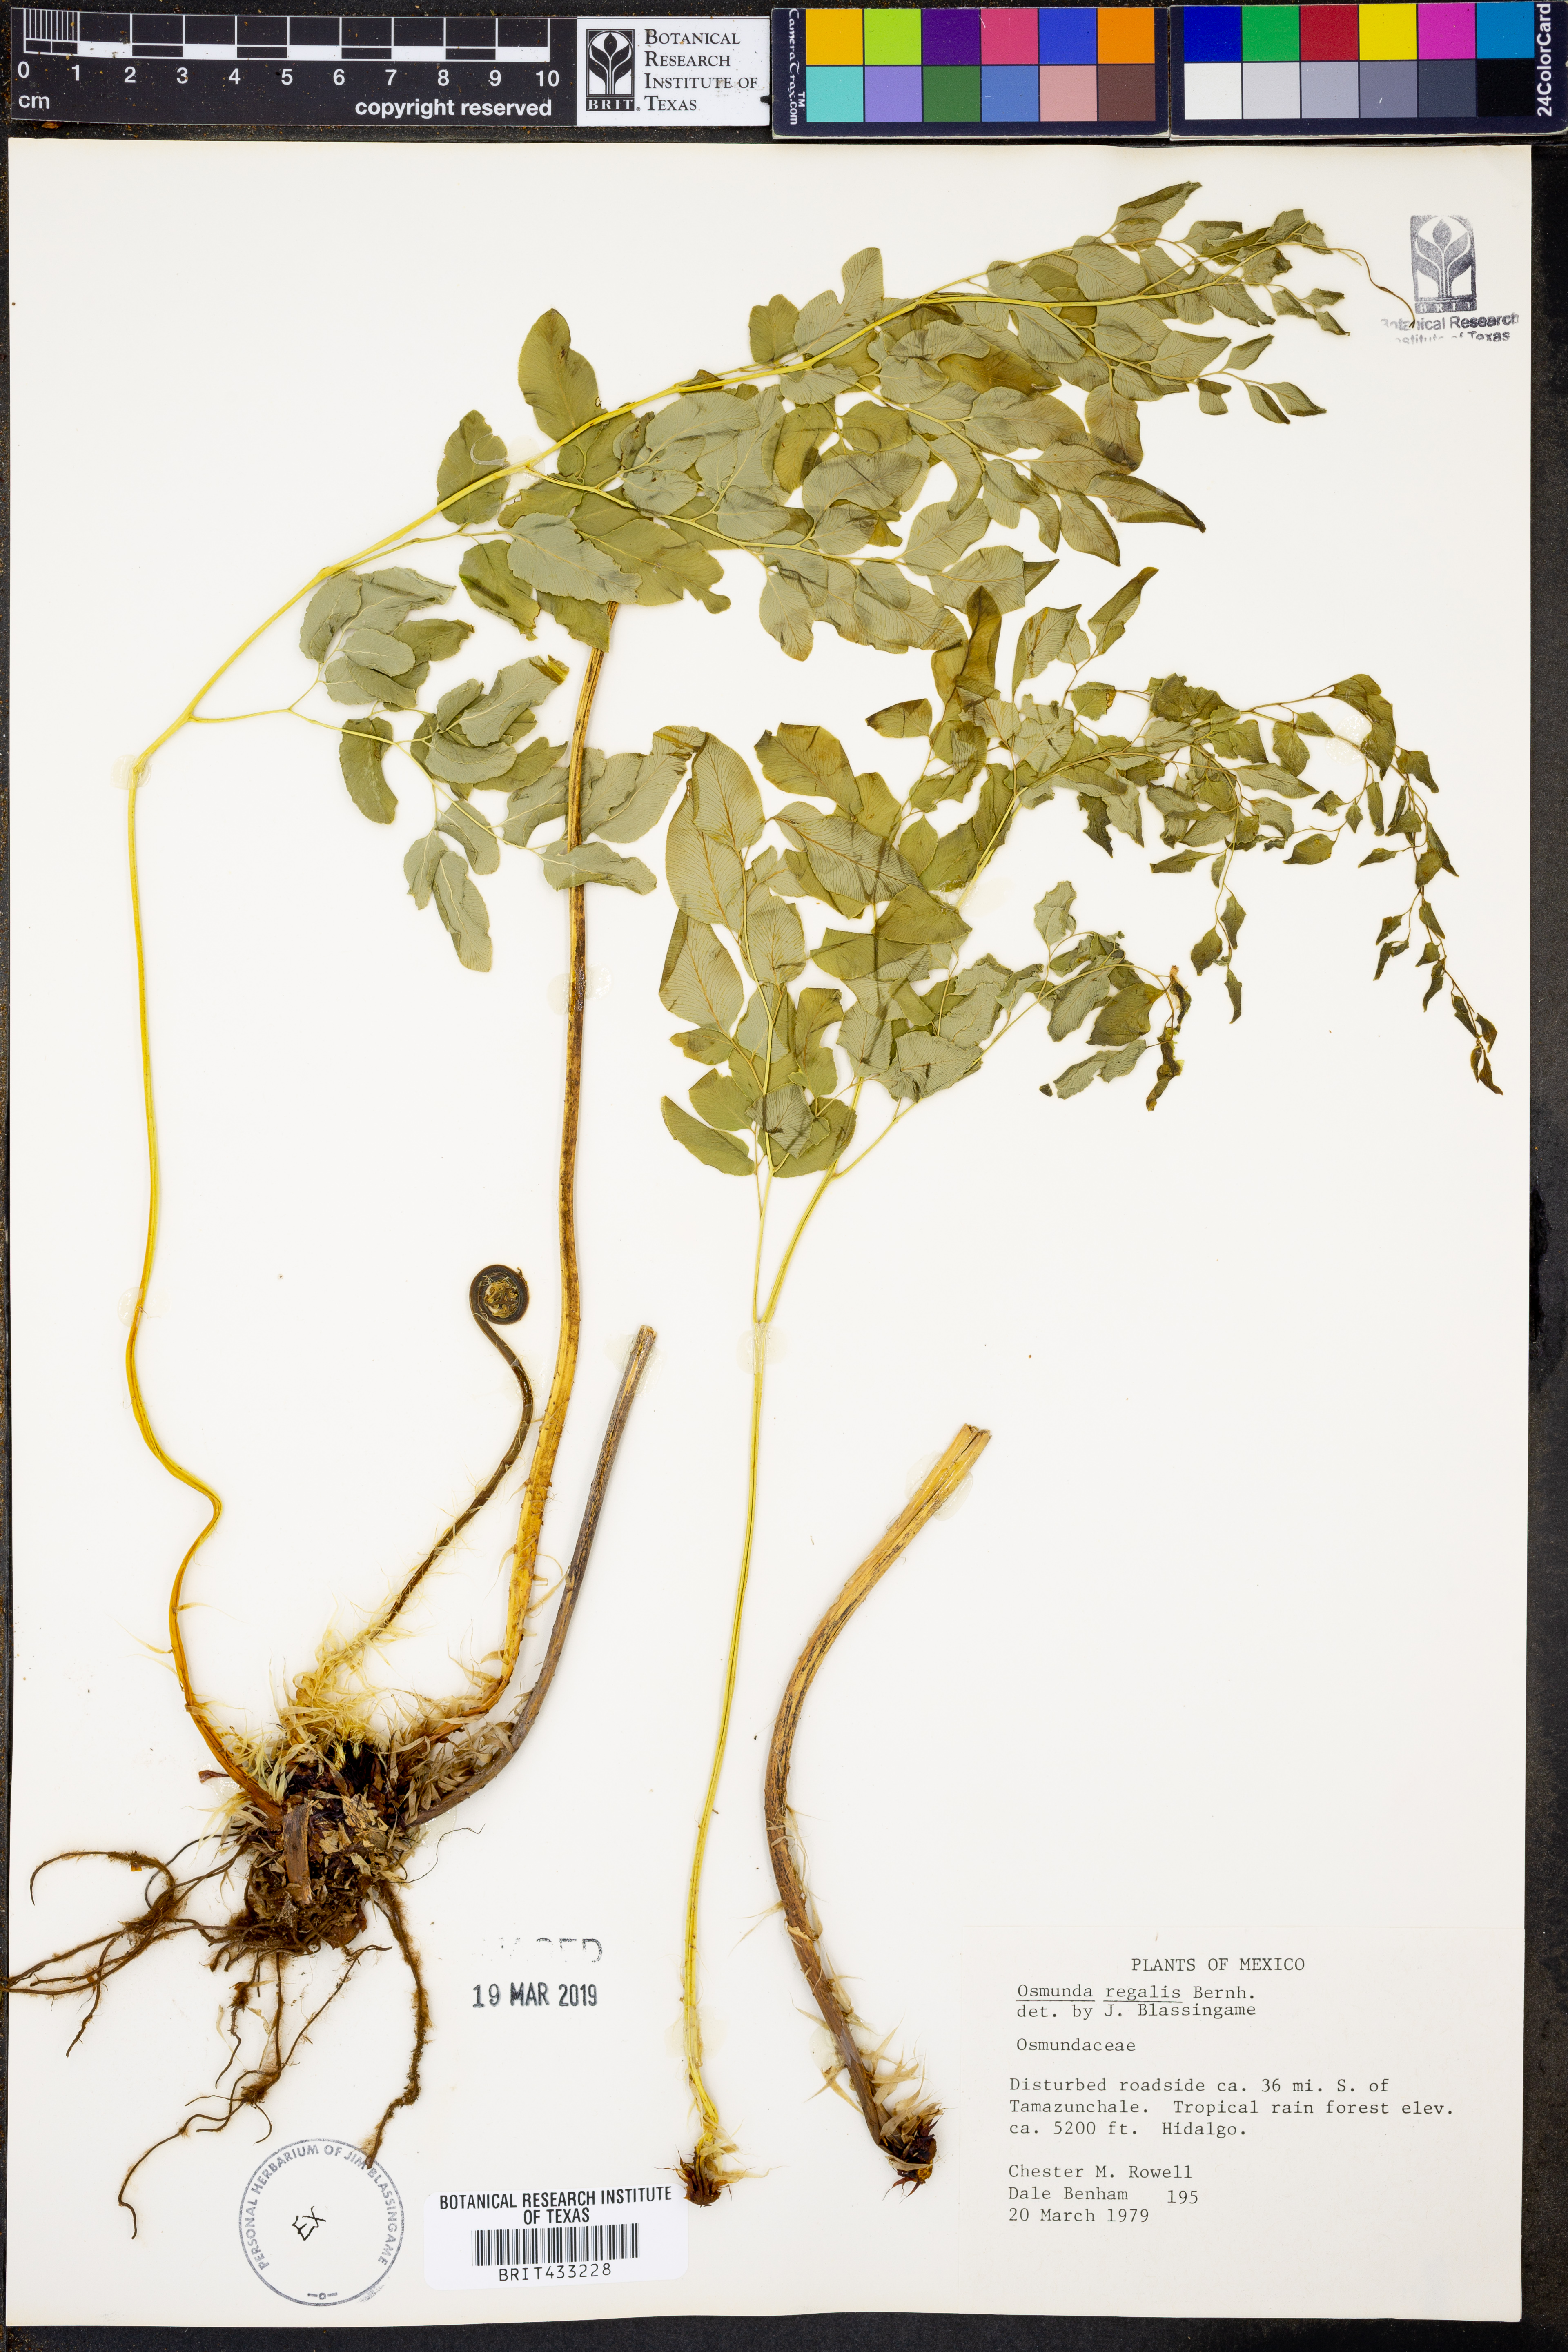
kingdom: Plantae
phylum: Tracheophyta
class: Polypodiopsida
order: Osmundales
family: Osmundaceae
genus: Osmunda
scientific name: Osmunda regalis
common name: Royal fern
